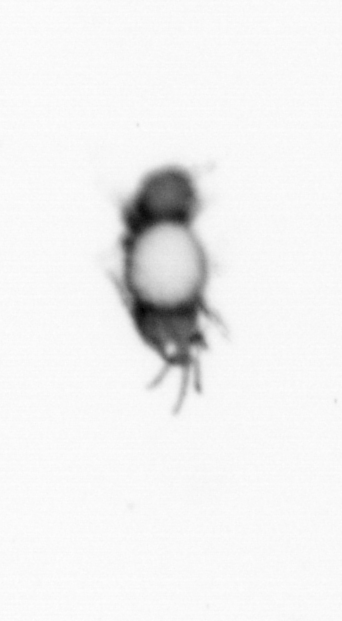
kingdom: Animalia
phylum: Annelida
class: Polychaeta
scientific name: Polychaeta
